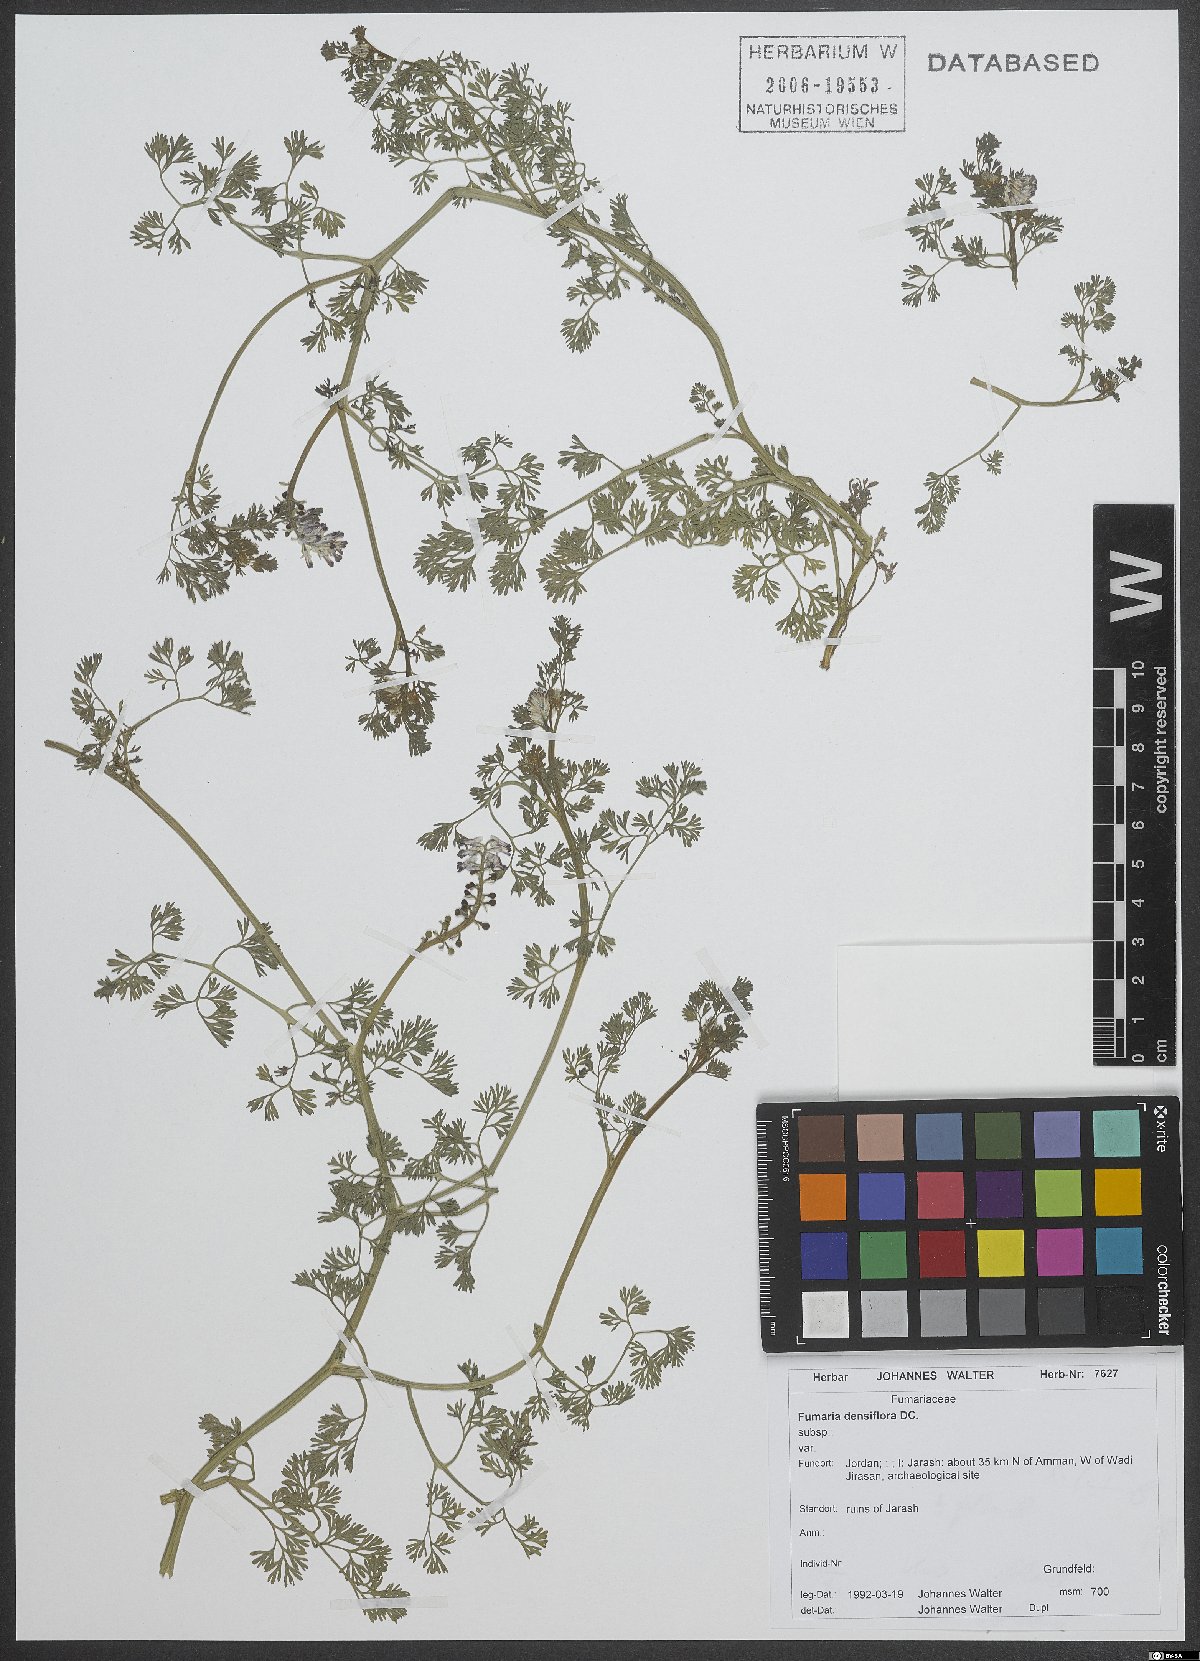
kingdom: Plantae
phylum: Tracheophyta
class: Magnoliopsida
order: Ranunculales
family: Papaveraceae
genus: Fumaria
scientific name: Fumaria densiflora
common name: Dense-flowered fumitory
